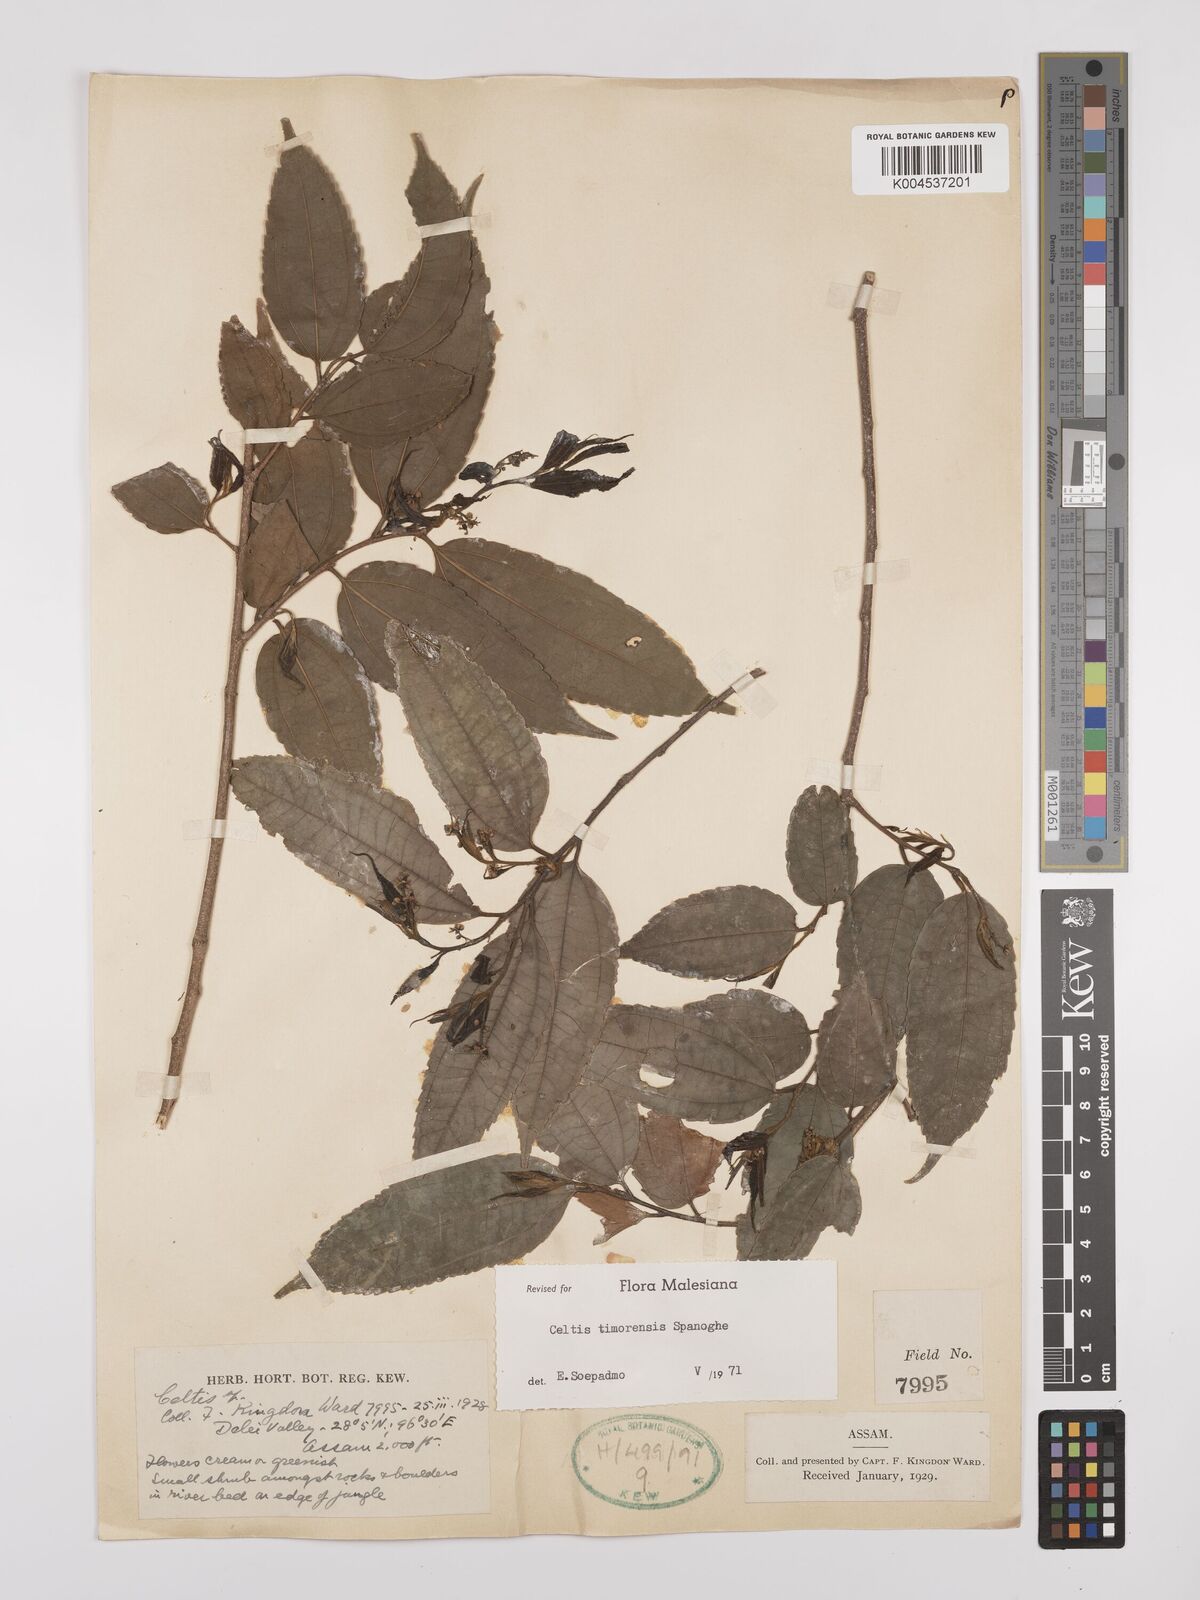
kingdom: Plantae
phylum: Tracheophyta
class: Magnoliopsida
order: Rosales
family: Cannabaceae
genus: Celtis
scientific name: Celtis timorensis
